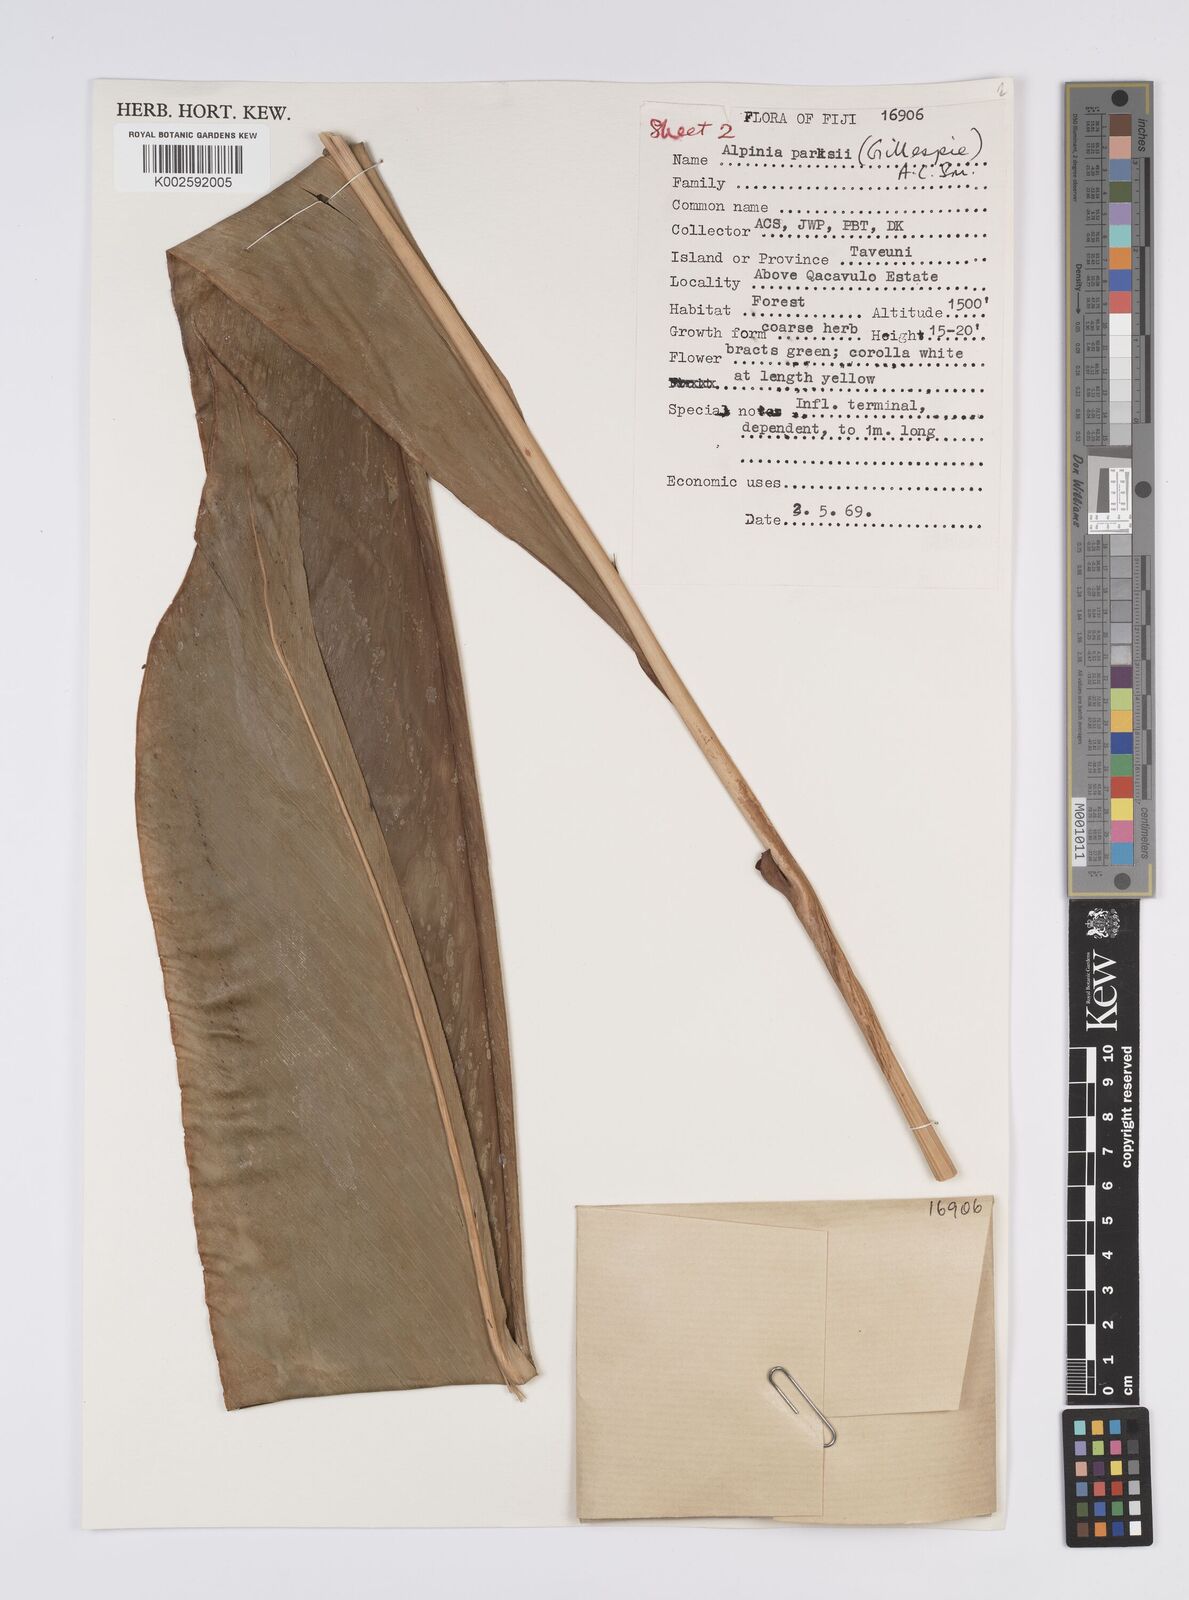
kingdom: Plantae
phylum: Tracheophyta
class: Liliopsida
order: Zingiberales
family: Zingiberaceae
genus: Alpinia
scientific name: Alpinia parksii
